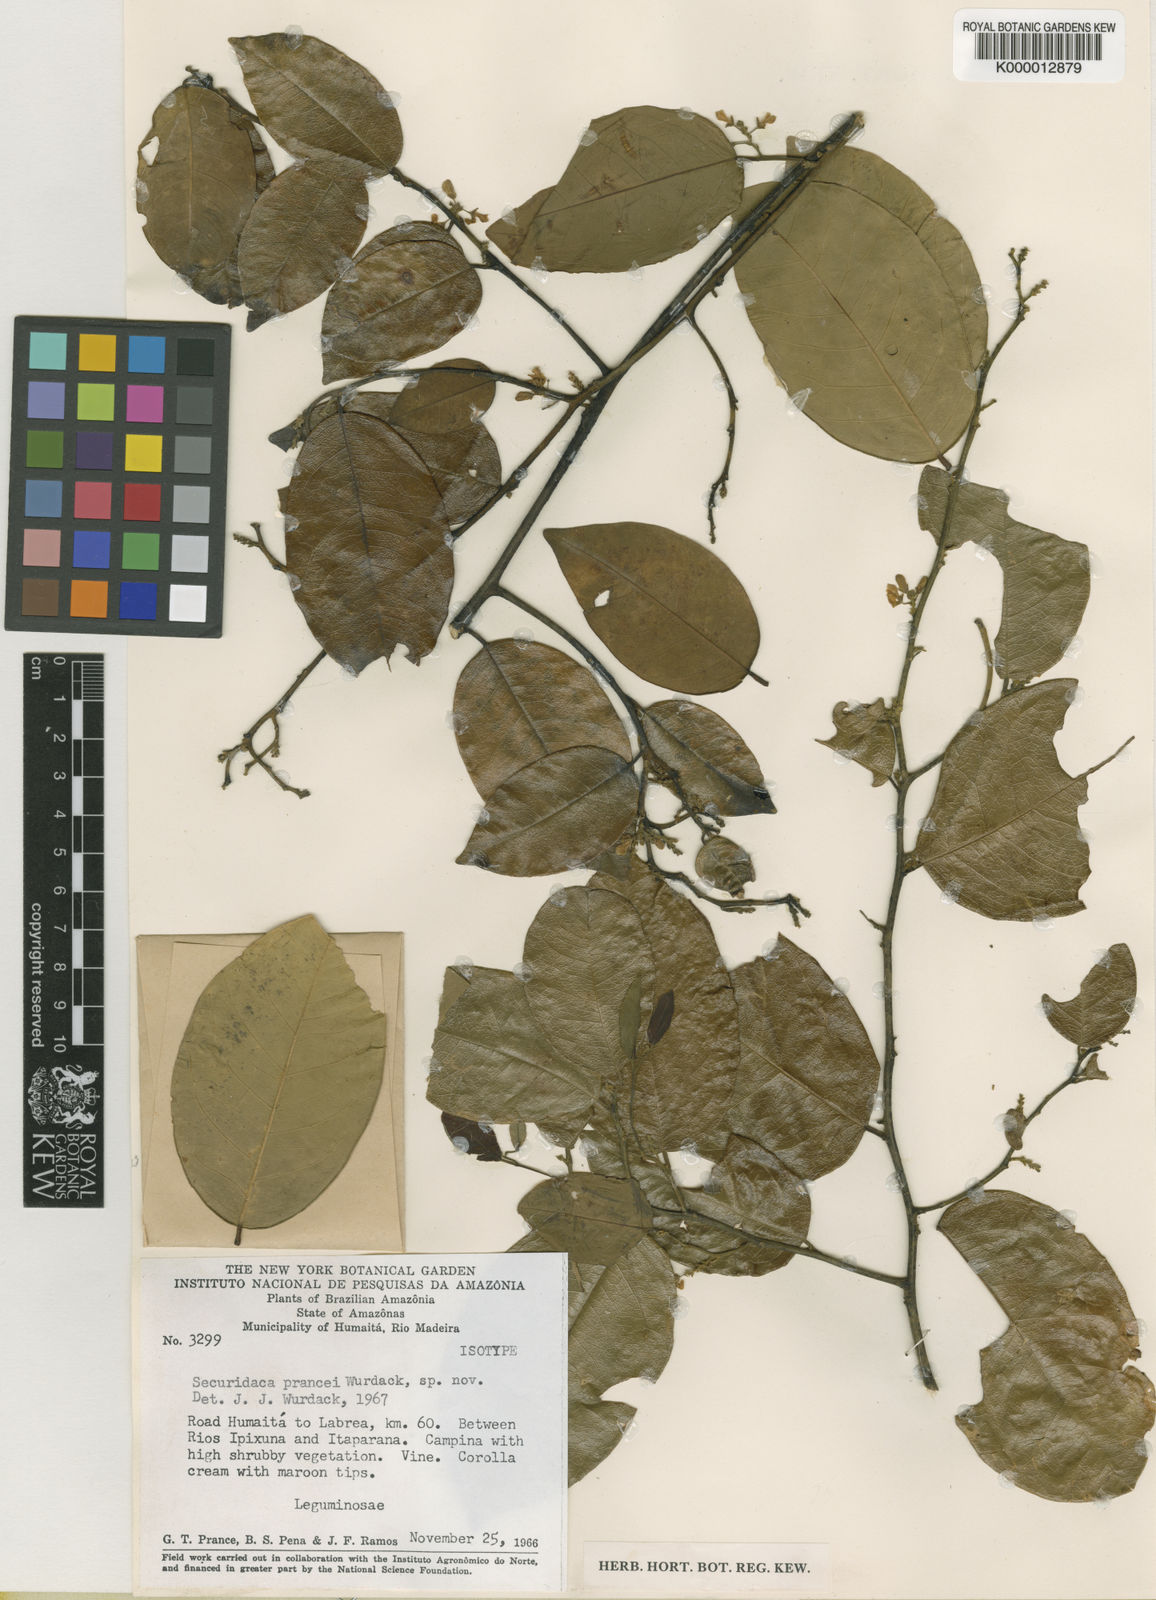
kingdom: Plantae
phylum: Tracheophyta
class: Magnoliopsida
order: Fabales
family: Polygalaceae
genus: Securidaca
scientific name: Securidaca prancei
